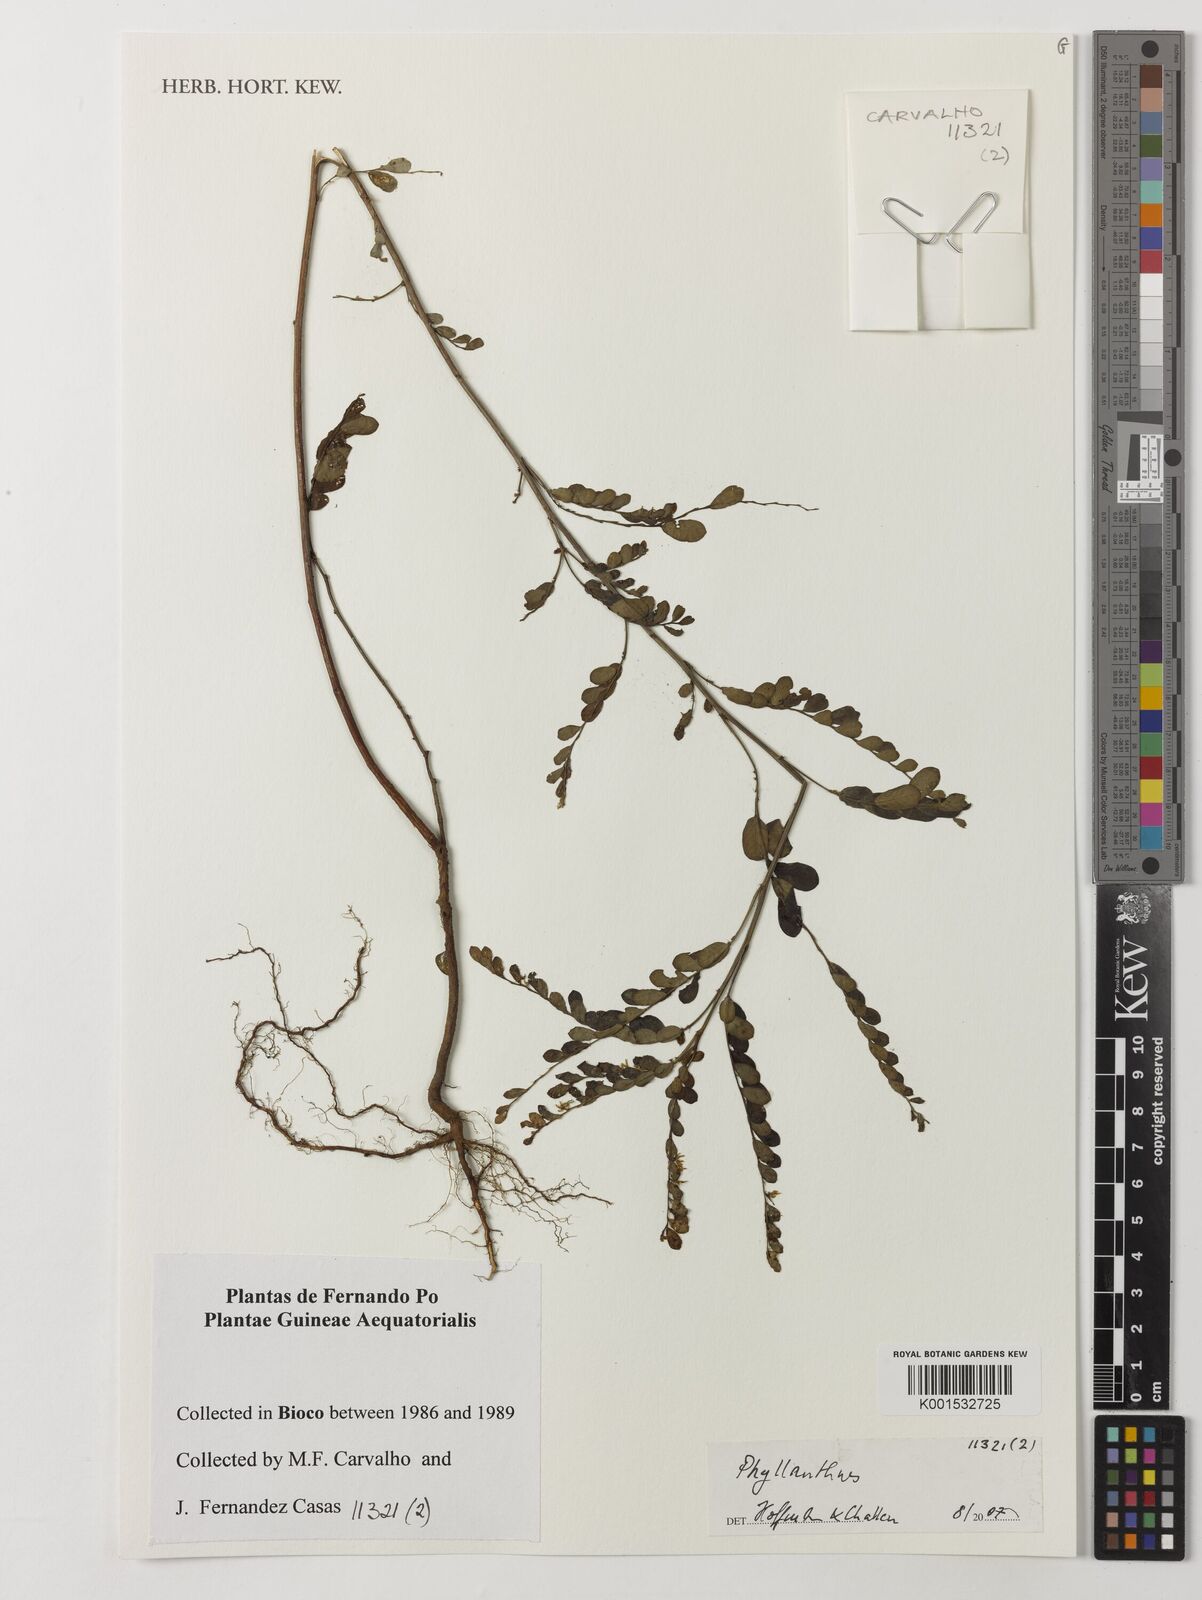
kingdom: Plantae
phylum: Tracheophyta
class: Magnoliopsida
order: Malpighiales
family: Phyllanthaceae
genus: Phyllanthus
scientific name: Phyllanthus
